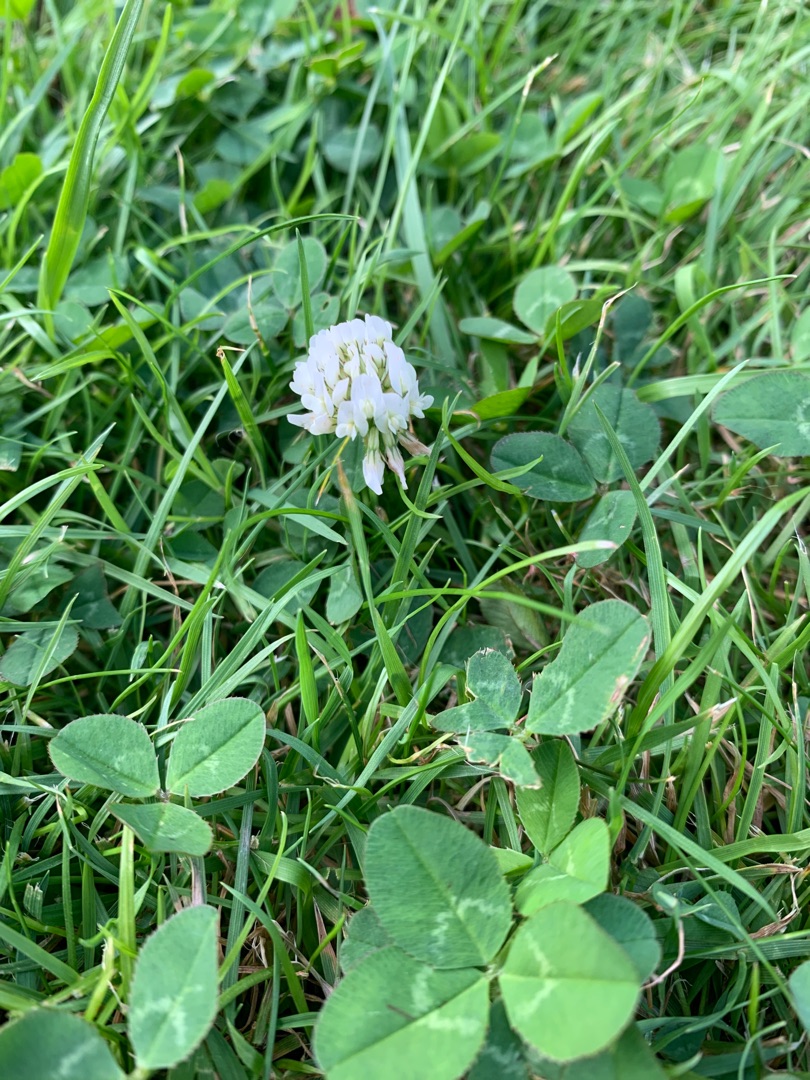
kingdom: Plantae
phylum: Tracheophyta
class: Magnoliopsida
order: Fabales
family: Fabaceae
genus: Trifolium
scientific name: Trifolium repens
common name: Hvid-kløver
